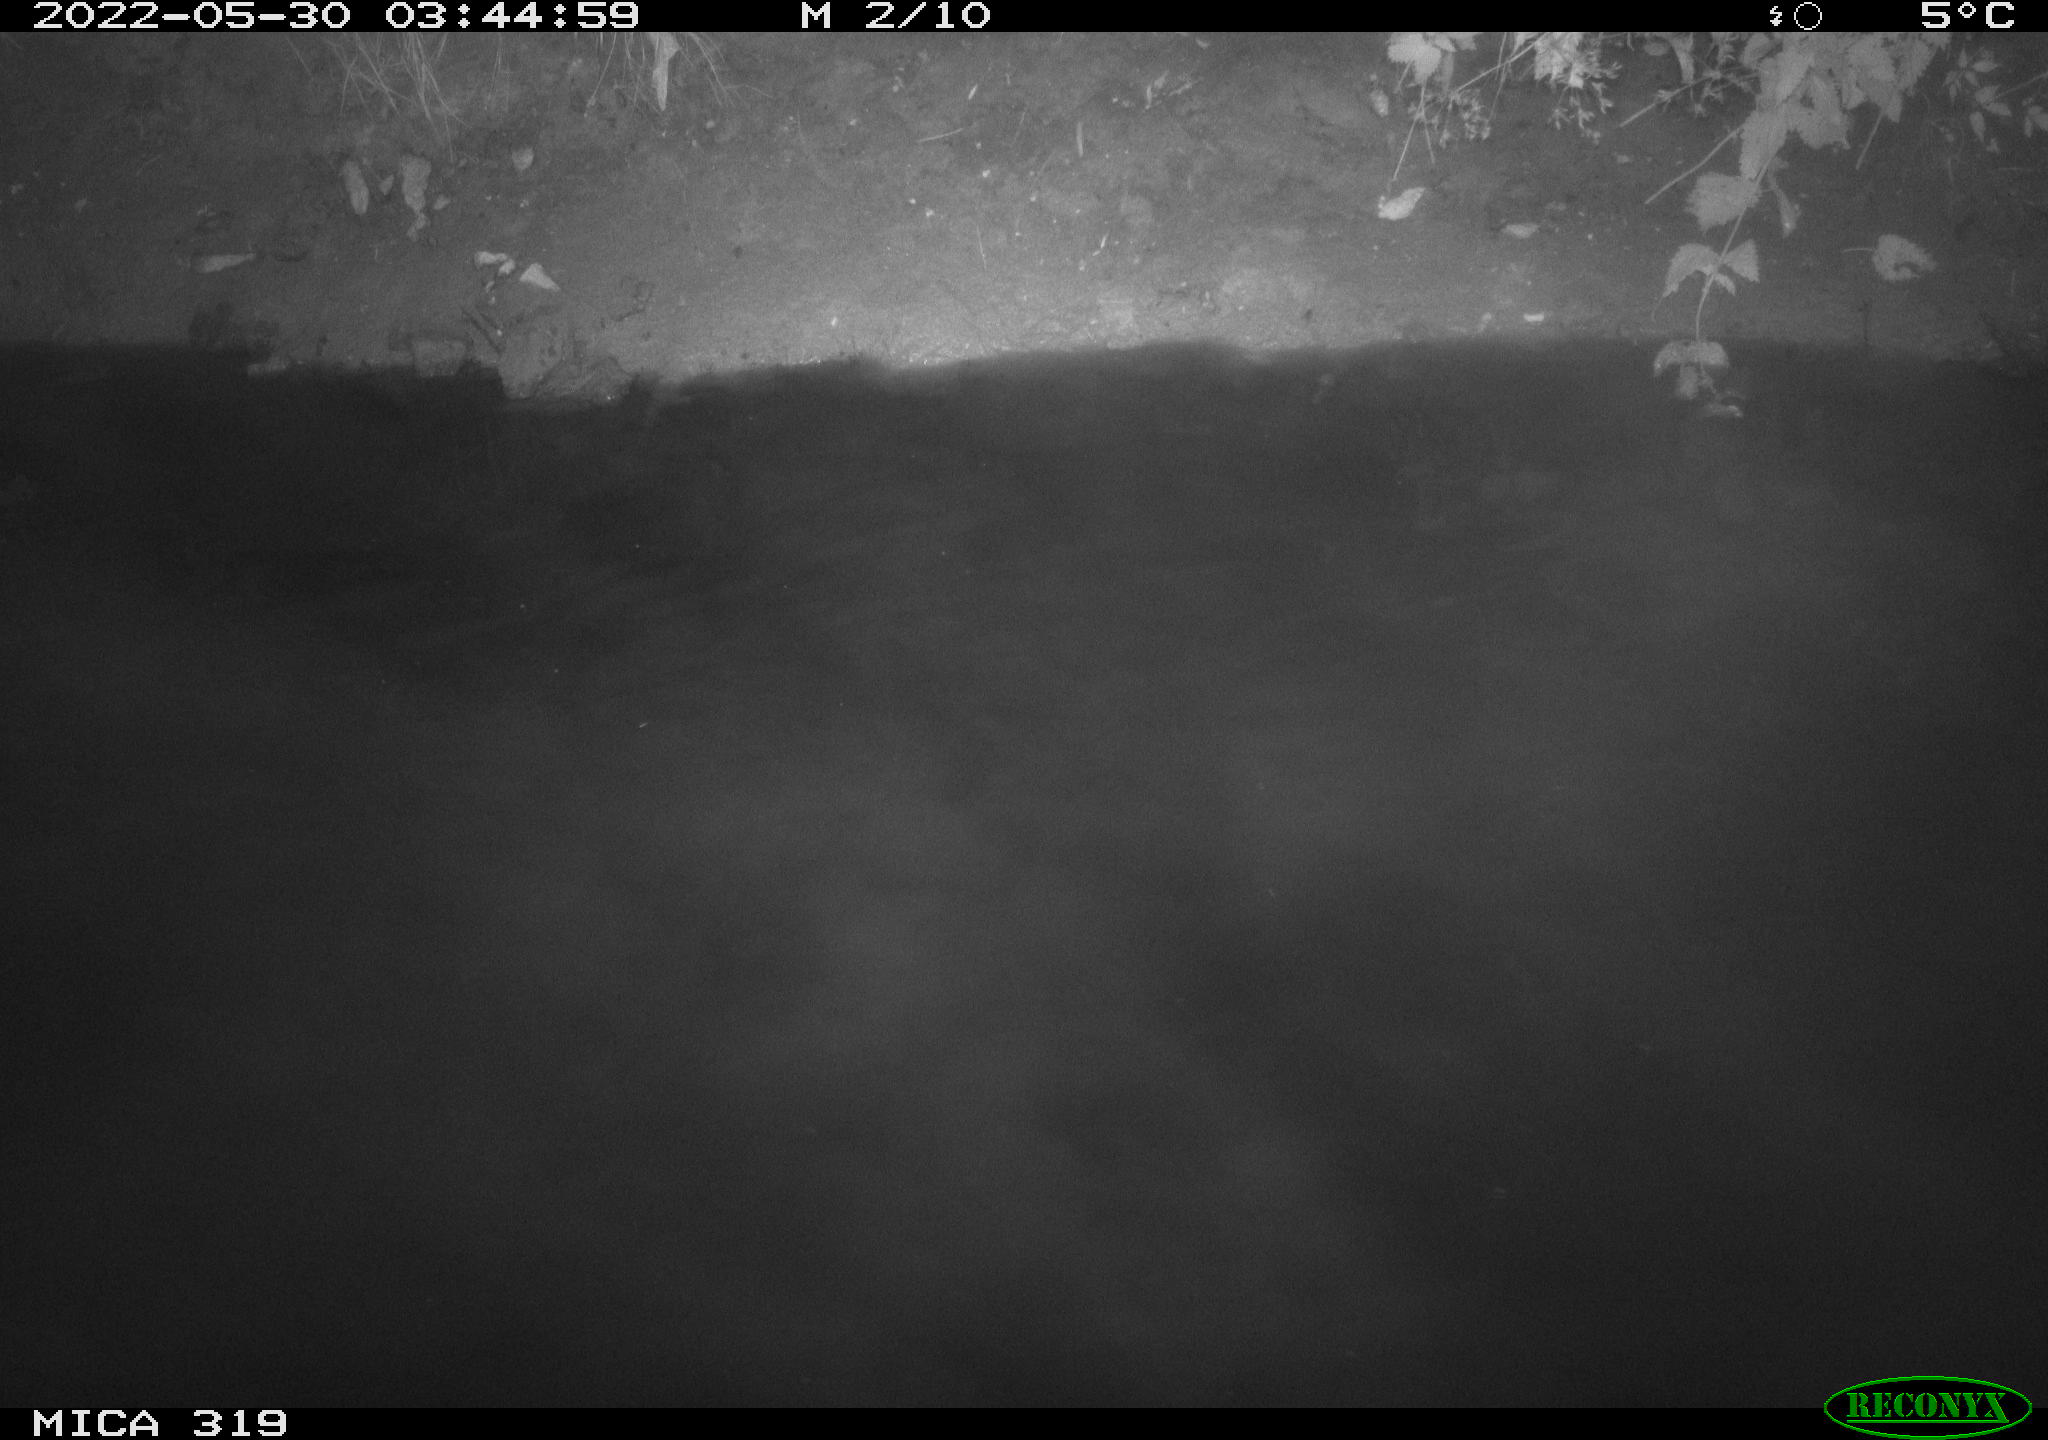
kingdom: Animalia
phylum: Chordata
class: Aves
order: Anseriformes
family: Anatidae
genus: Anas
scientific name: Anas
